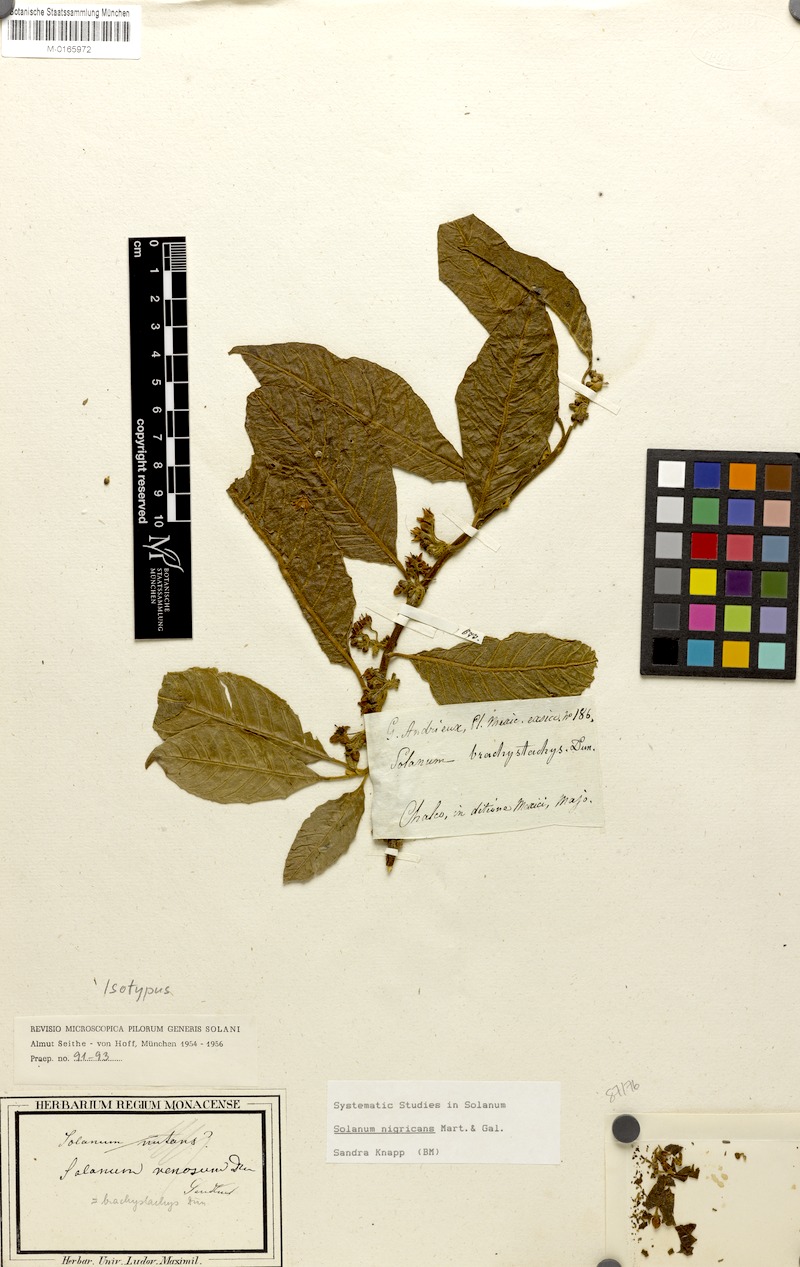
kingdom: Plantae
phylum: Tracheophyta
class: Magnoliopsida
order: Solanales
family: Solanaceae
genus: Solanum
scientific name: Solanum nigricans
